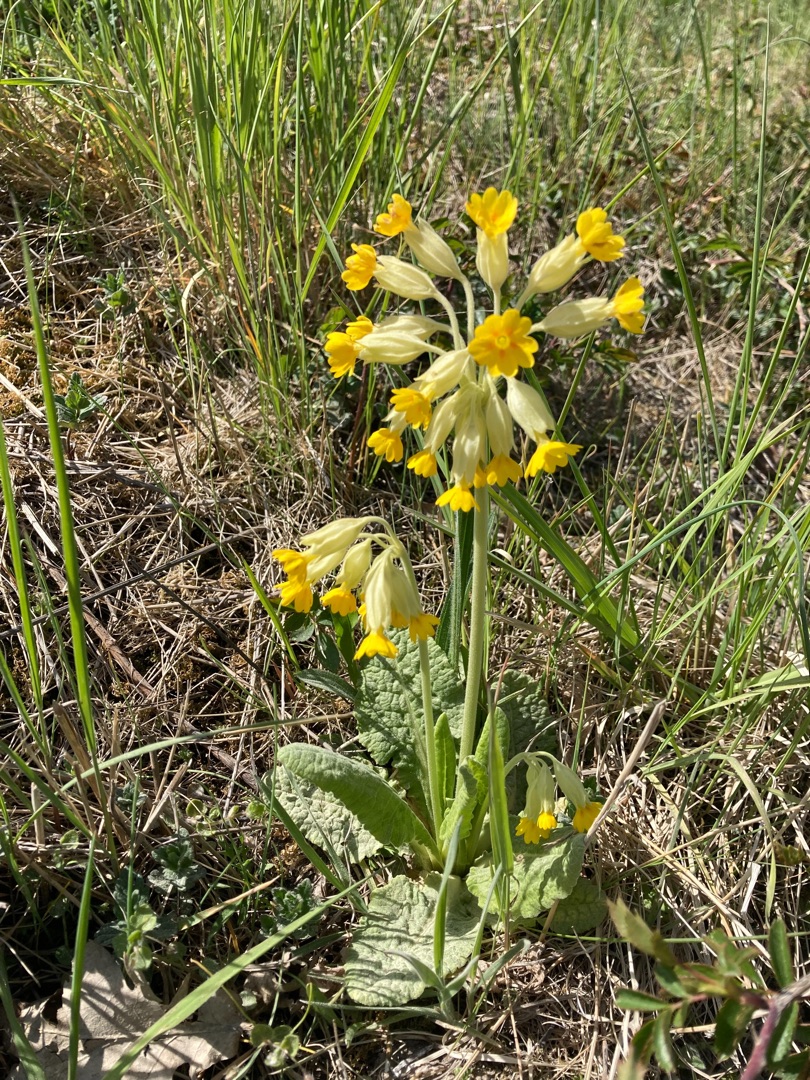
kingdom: Plantae
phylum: Tracheophyta
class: Magnoliopsida
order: Ericales
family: Primulaceae
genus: Primula
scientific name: Primula veris
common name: Hulkravet kodriver
